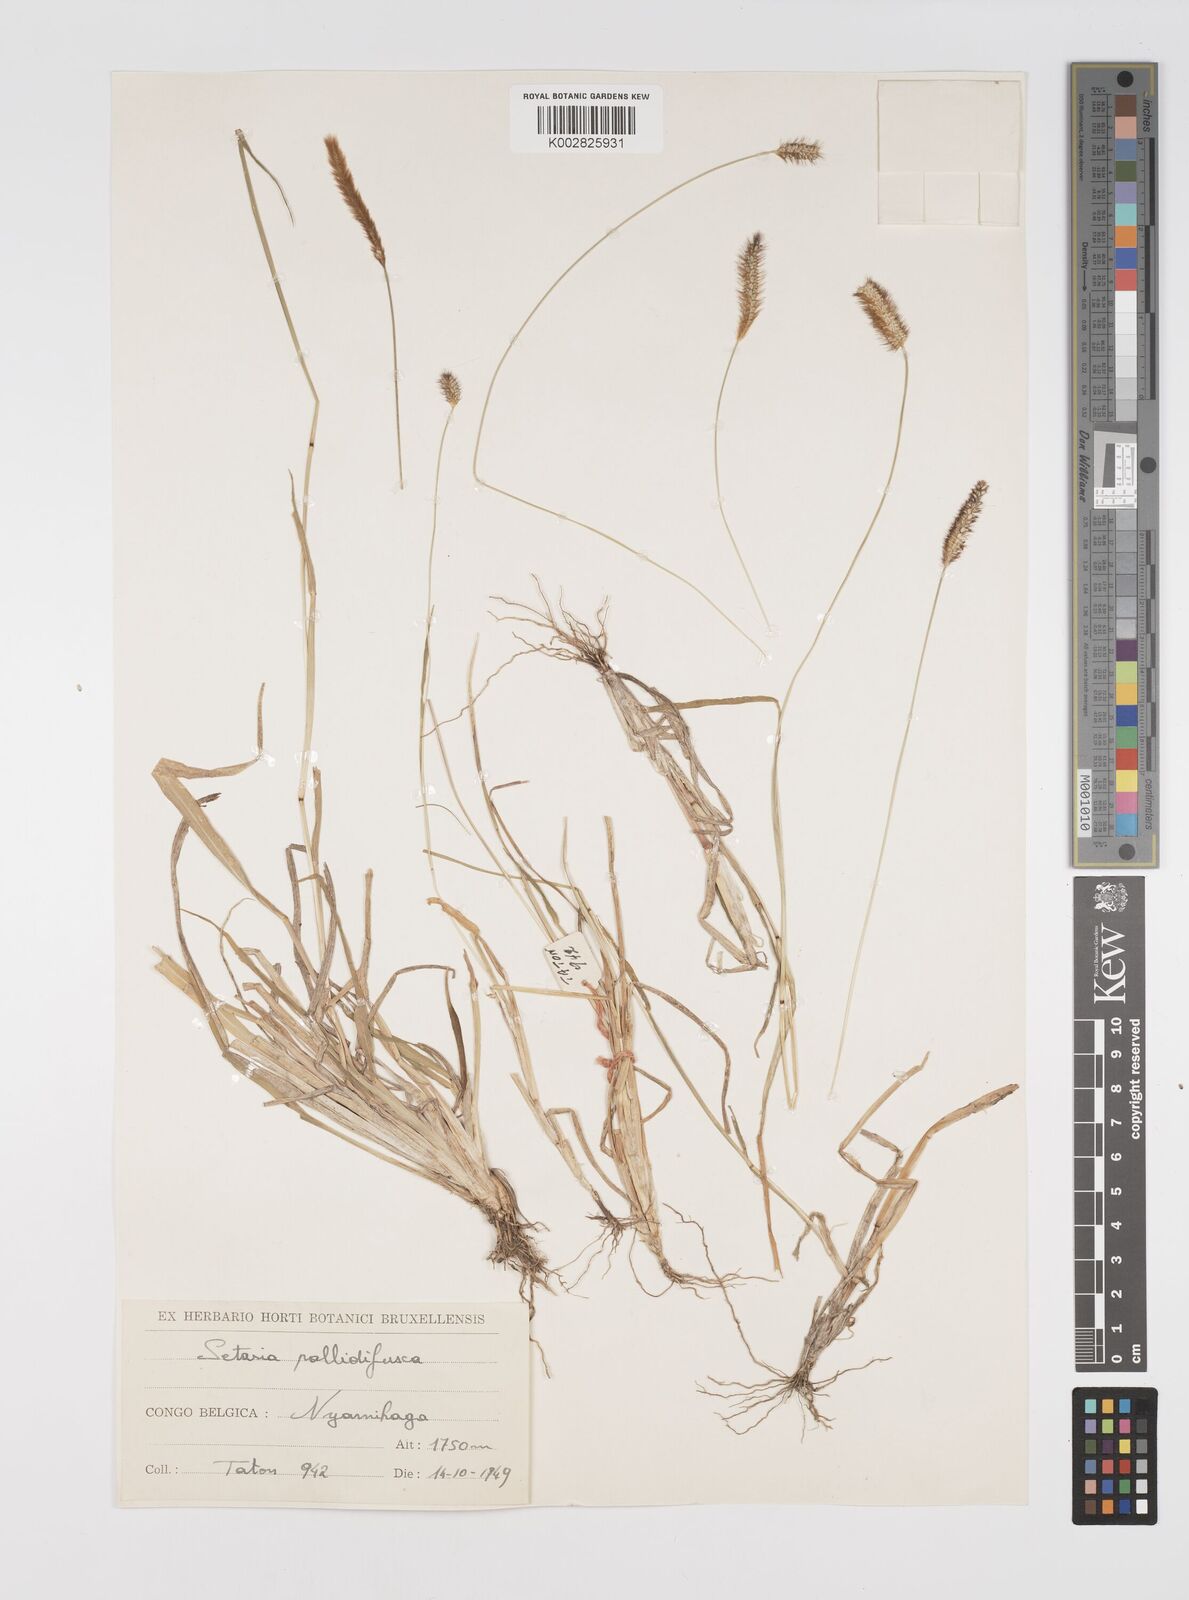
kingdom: Plantae
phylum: Tracheophyta
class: Liliopsida
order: Poales
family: Poaceae
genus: Setaria
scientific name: Setaria pumila
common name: Yellow bristle-grass
